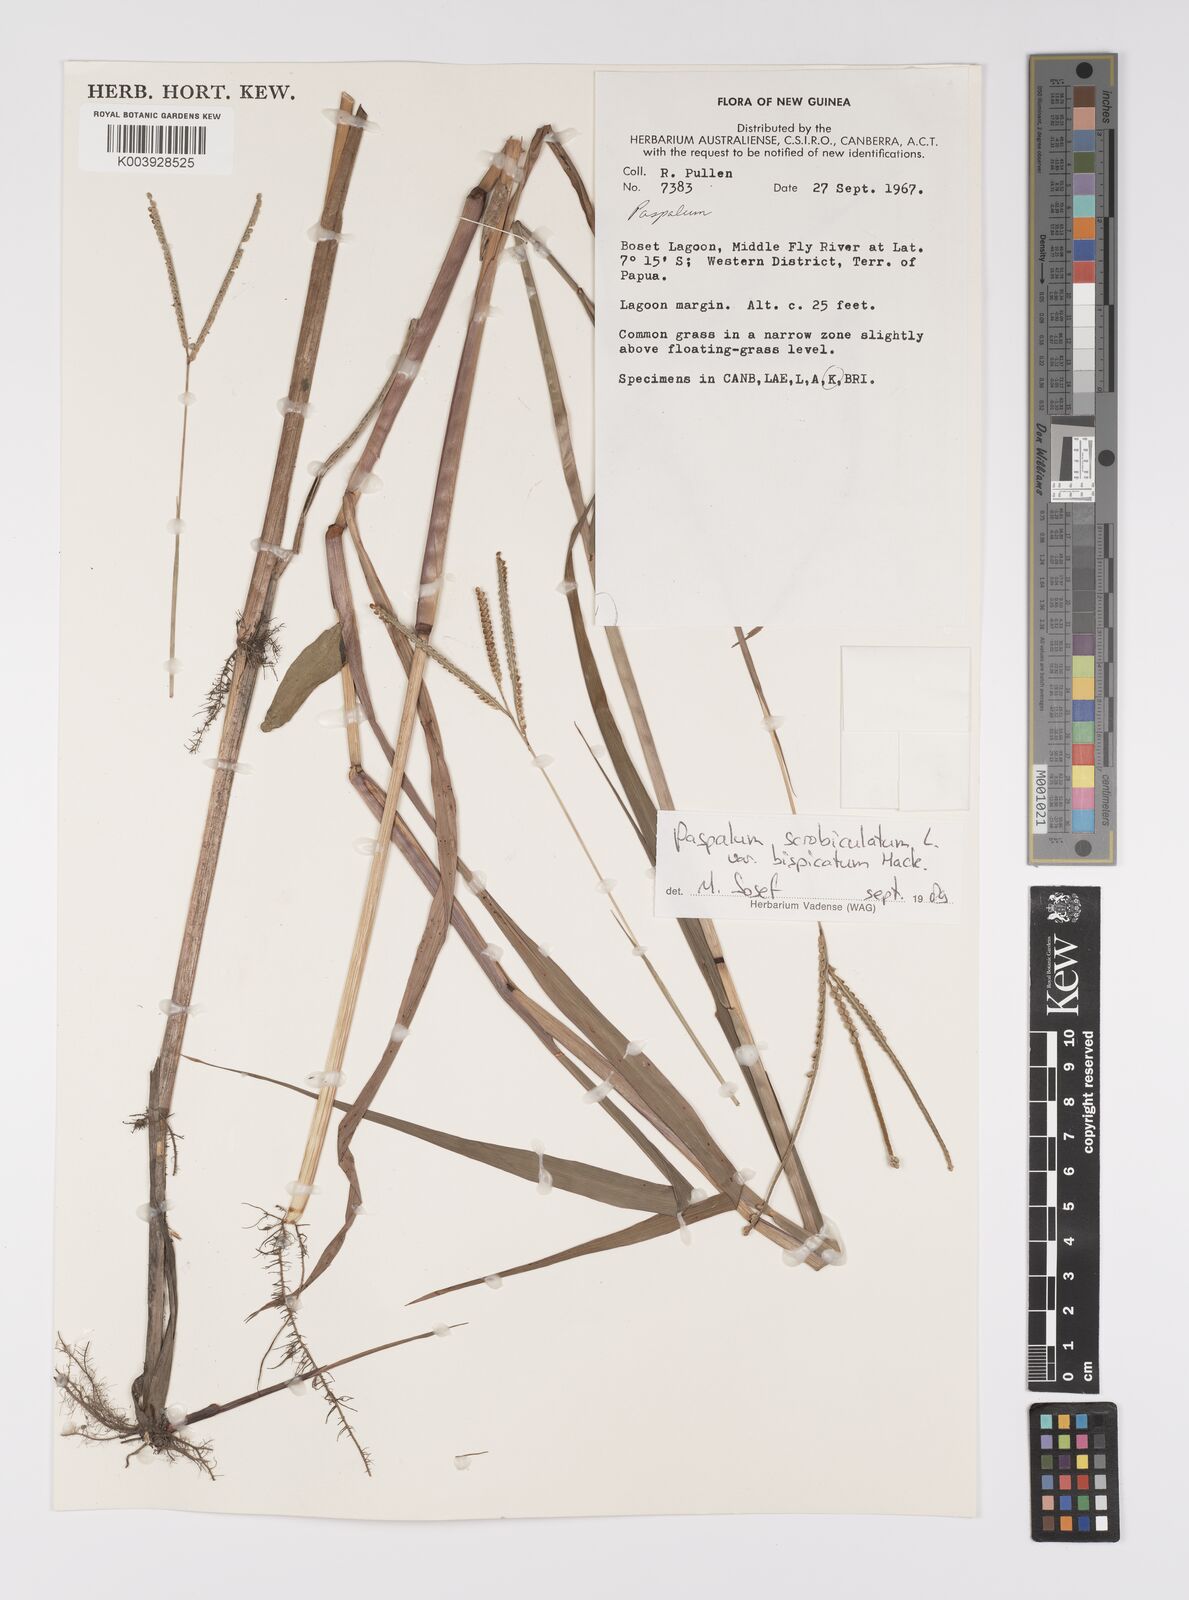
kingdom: Plantae
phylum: Tracheophyta
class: Liliopsida
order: Poales
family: Poaceae
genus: Paspalum
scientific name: Paspalum scrobiculatum
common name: Kodo millet
